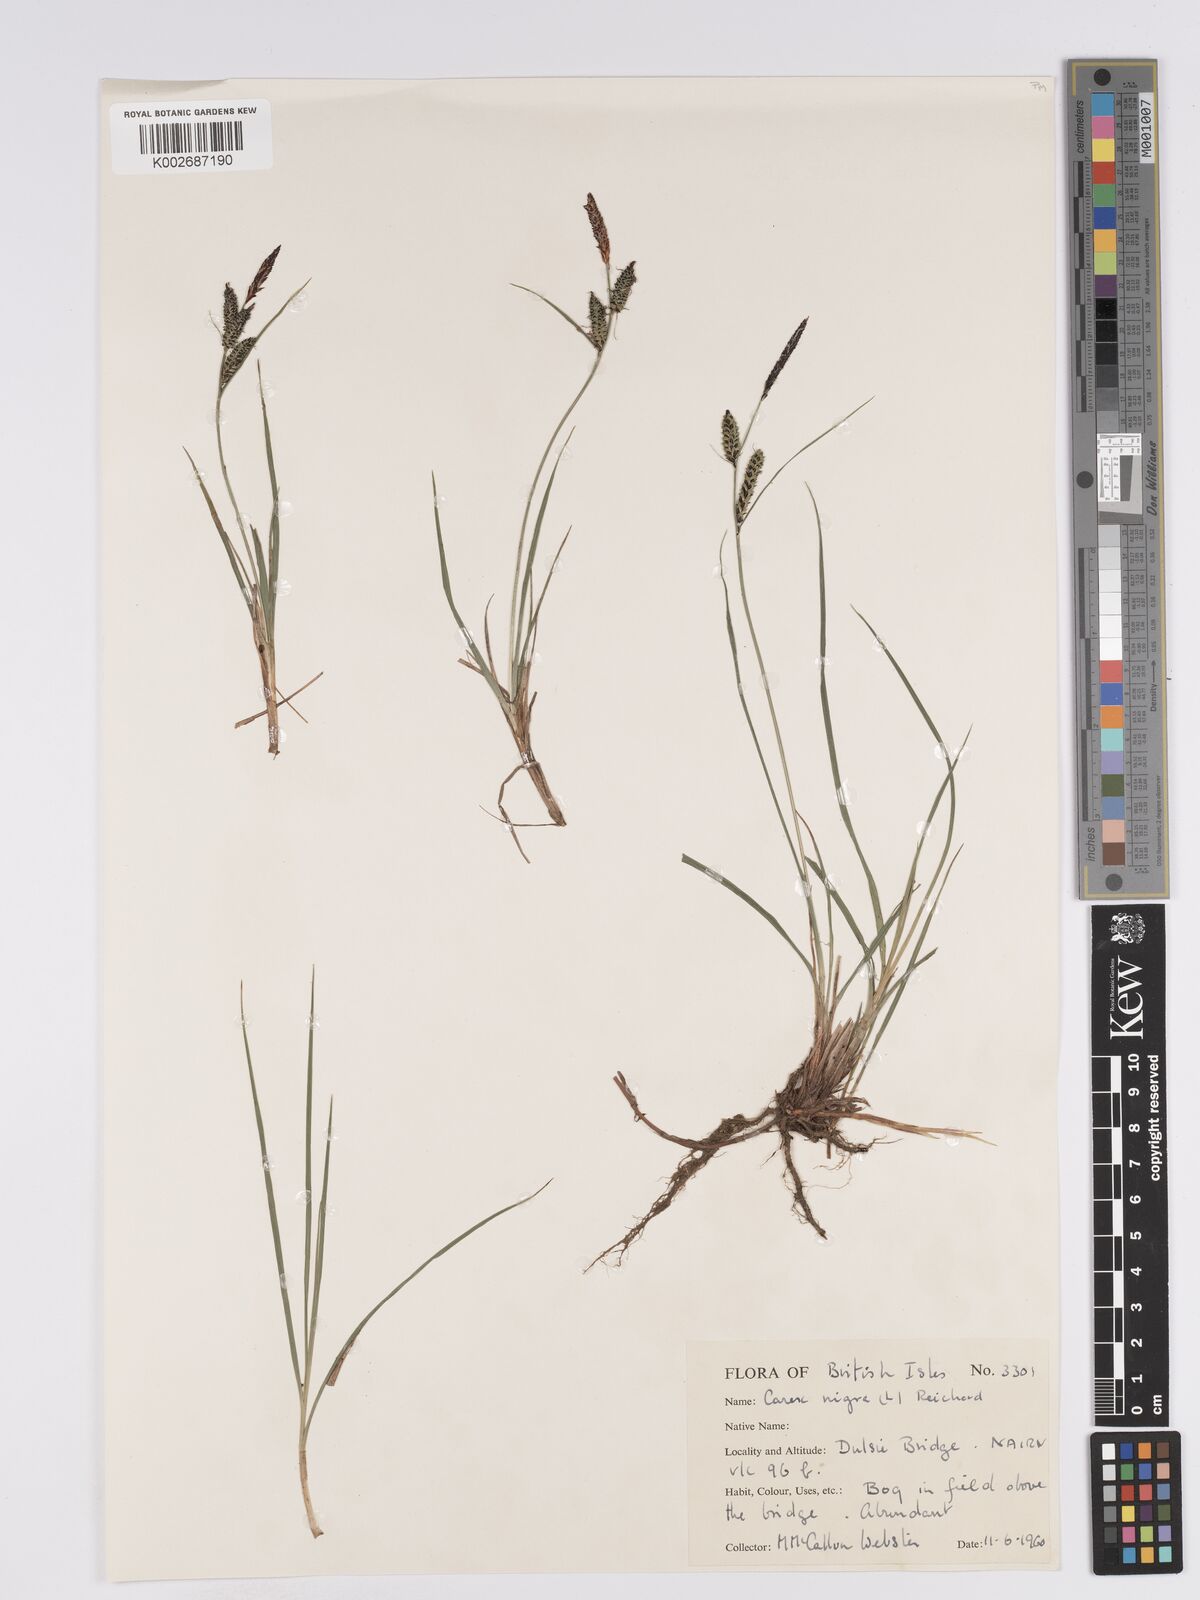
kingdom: Plantae
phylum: Tracheophyta
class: Liliopsida
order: Poales
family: Cyperaceae
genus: Carex
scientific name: Carex nigra
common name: Common sedge
